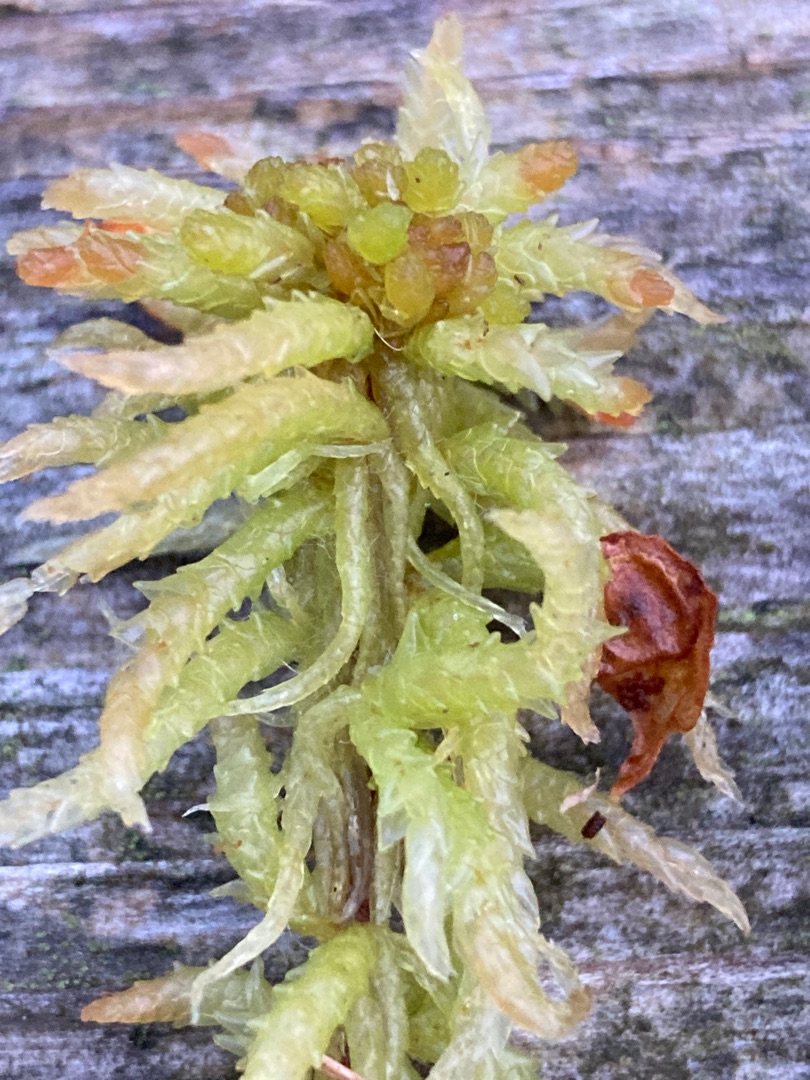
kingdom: Plantae
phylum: Bryophyta
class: Sphagnopsida
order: Sphagnales
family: Sphagnaceae
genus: Sphagnum
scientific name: Sphagnum palustre
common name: Almindelig tørvemos
